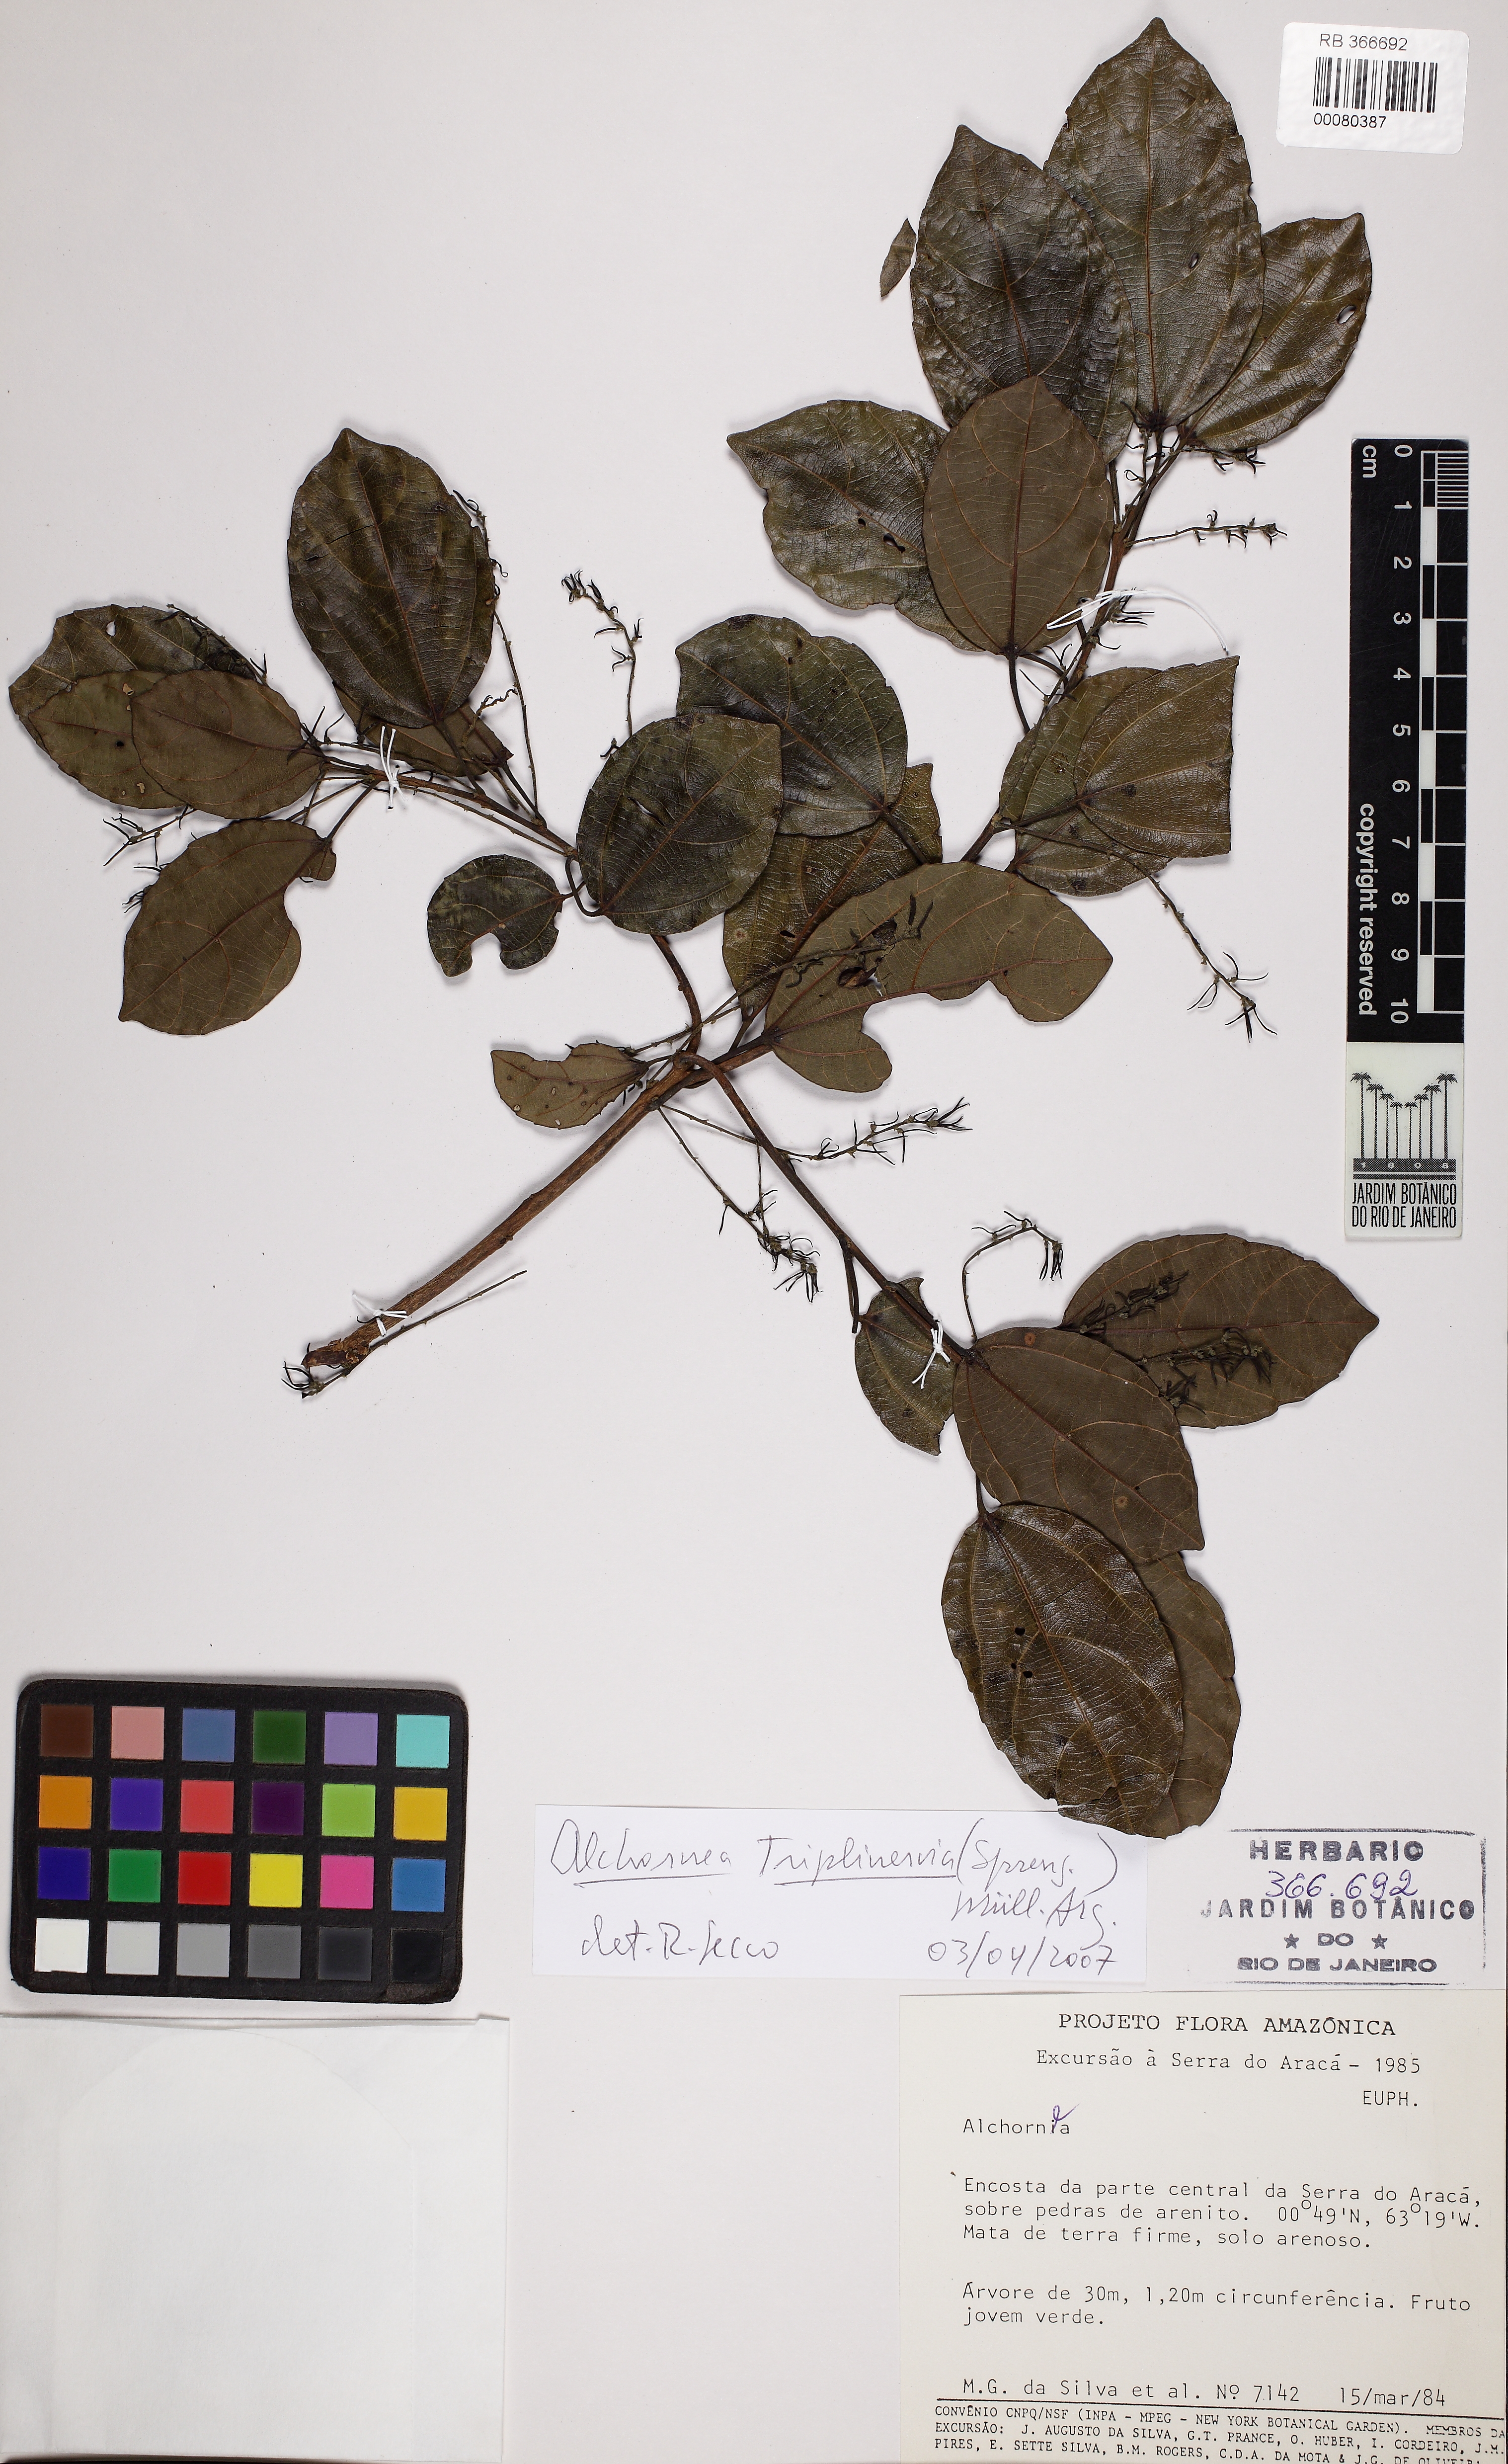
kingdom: Plantae
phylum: Tracheophyta
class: Magnoliopsida
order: Malpighiales
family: Euphorbiaceae
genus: Alchornea
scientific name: Alchornea triplinervia
